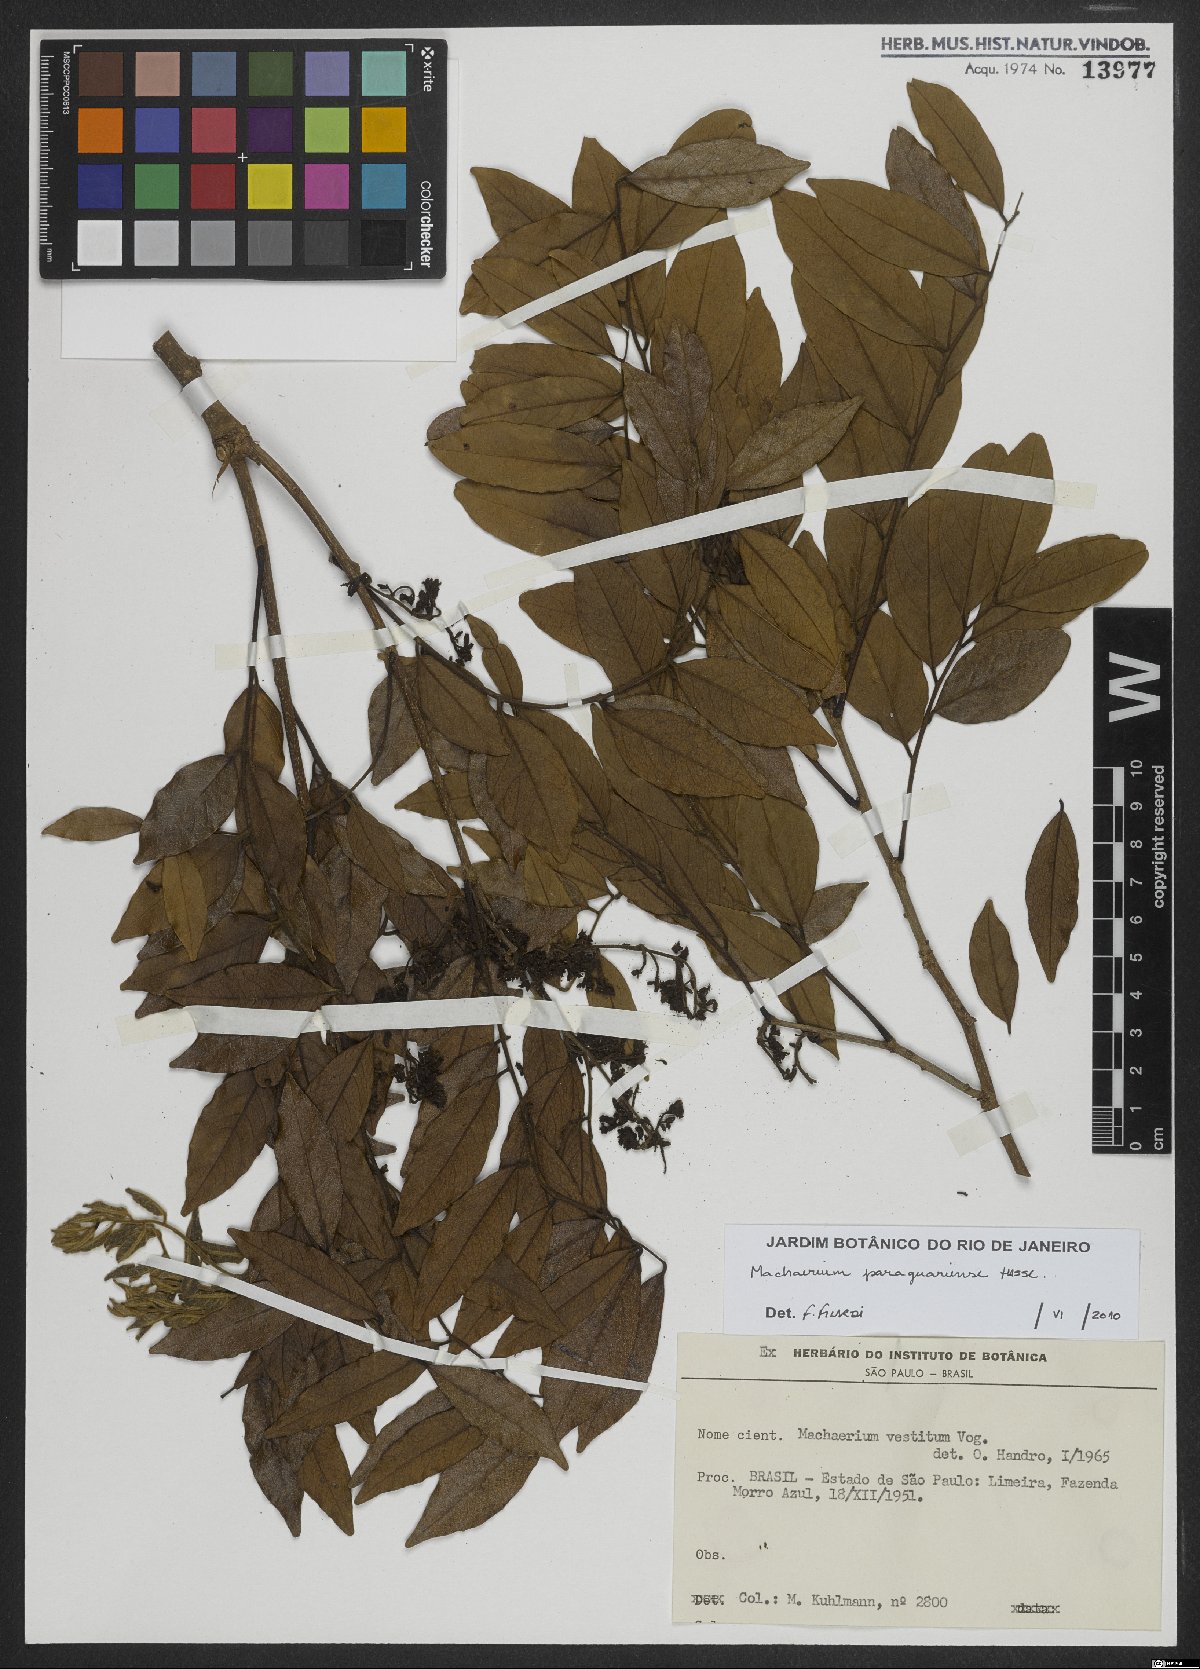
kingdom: Plantae
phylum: Tracheophyta
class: Magnoliopsida
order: Fabales
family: Fabaceae
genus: Machaerium
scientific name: Machaerium oblongifolium
